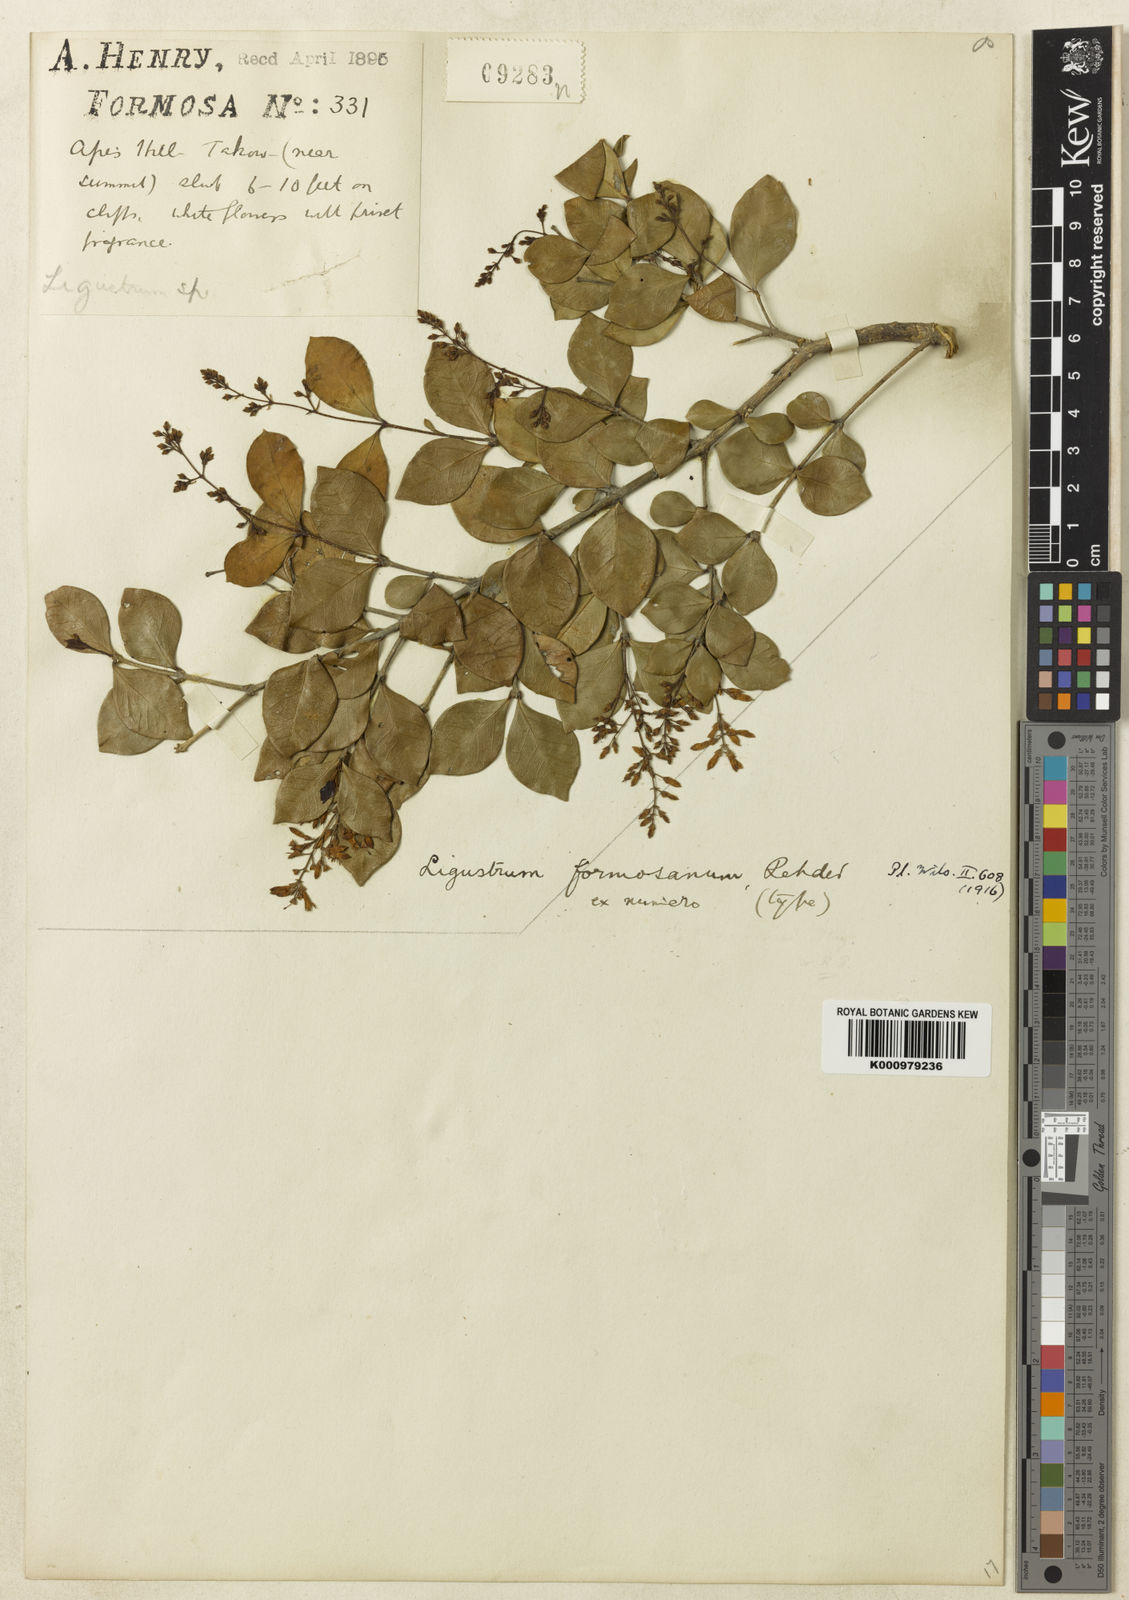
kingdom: Plantae
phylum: Tracheophyta
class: Magnoliopsida
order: Lamiales
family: Oleaceae
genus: Ligustrum
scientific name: Ligustrum pricei
